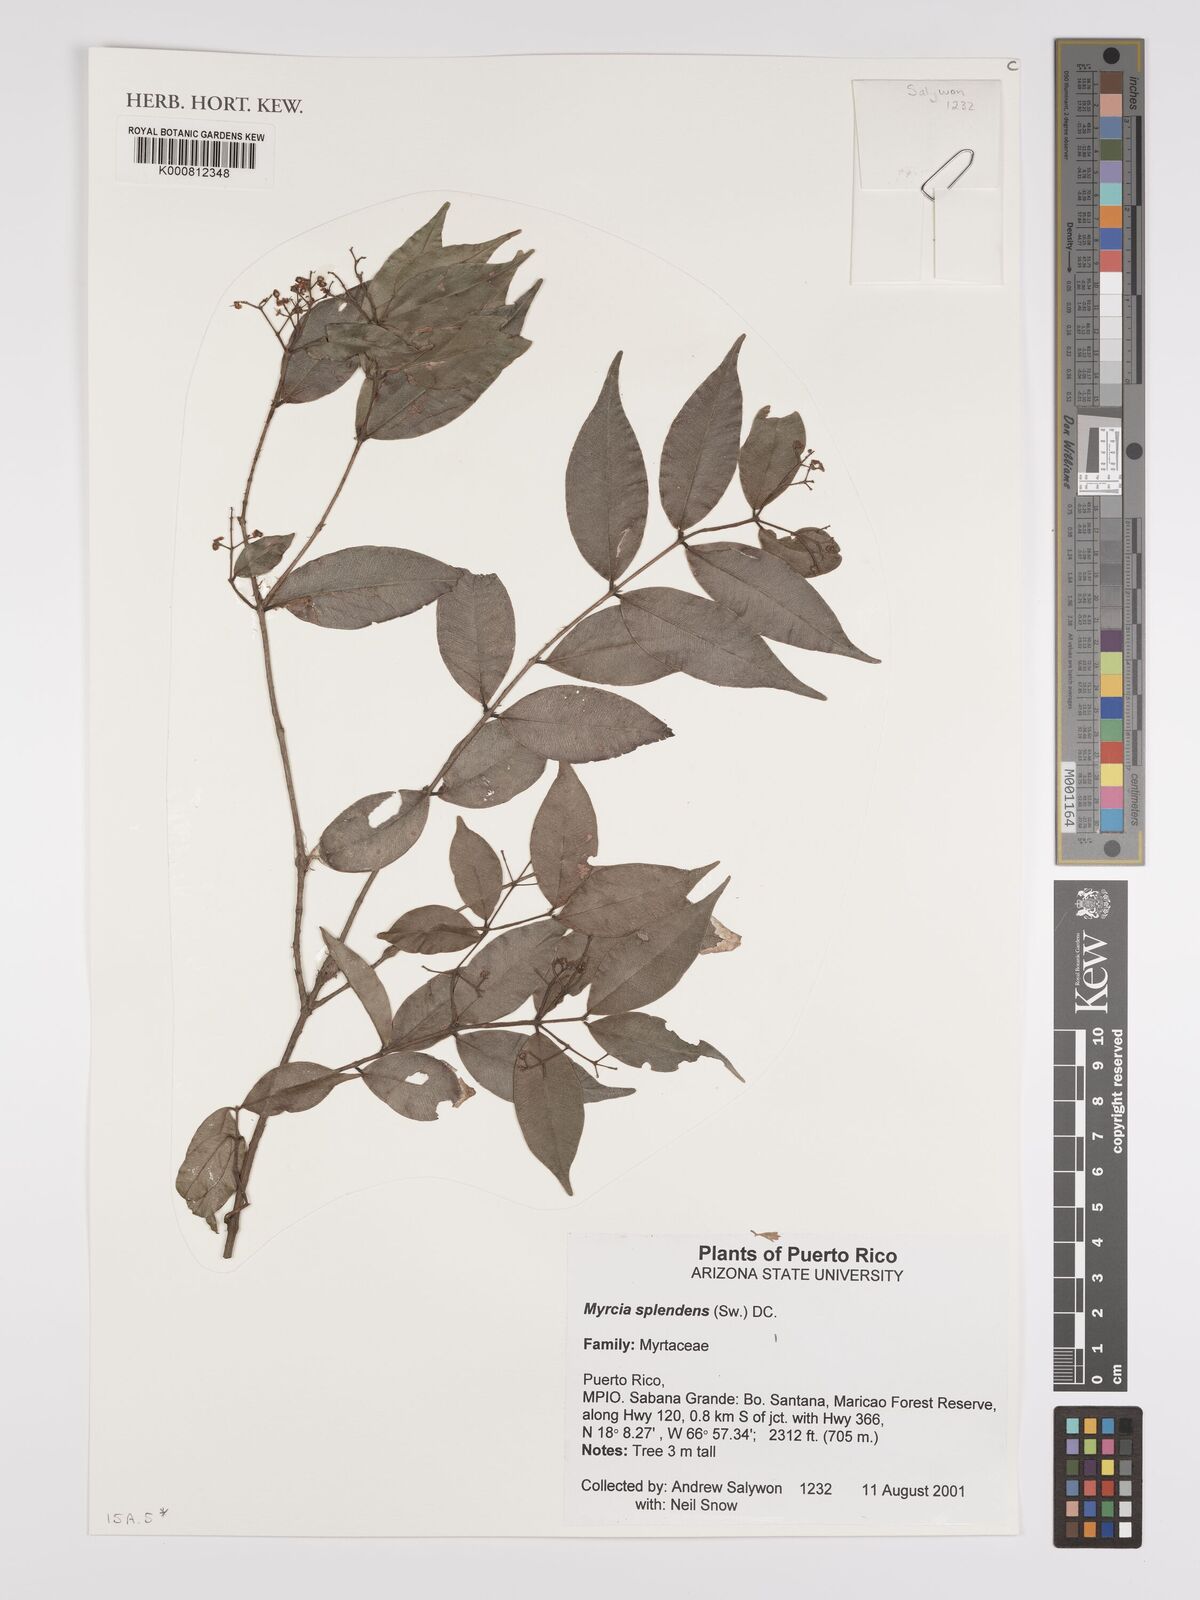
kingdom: Plantae
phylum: Tracheophyta
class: Magnoliopsida
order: Myrtales
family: Myrtaceae
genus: Myrcia
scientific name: Myrcia splendens
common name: Surinam cherry
